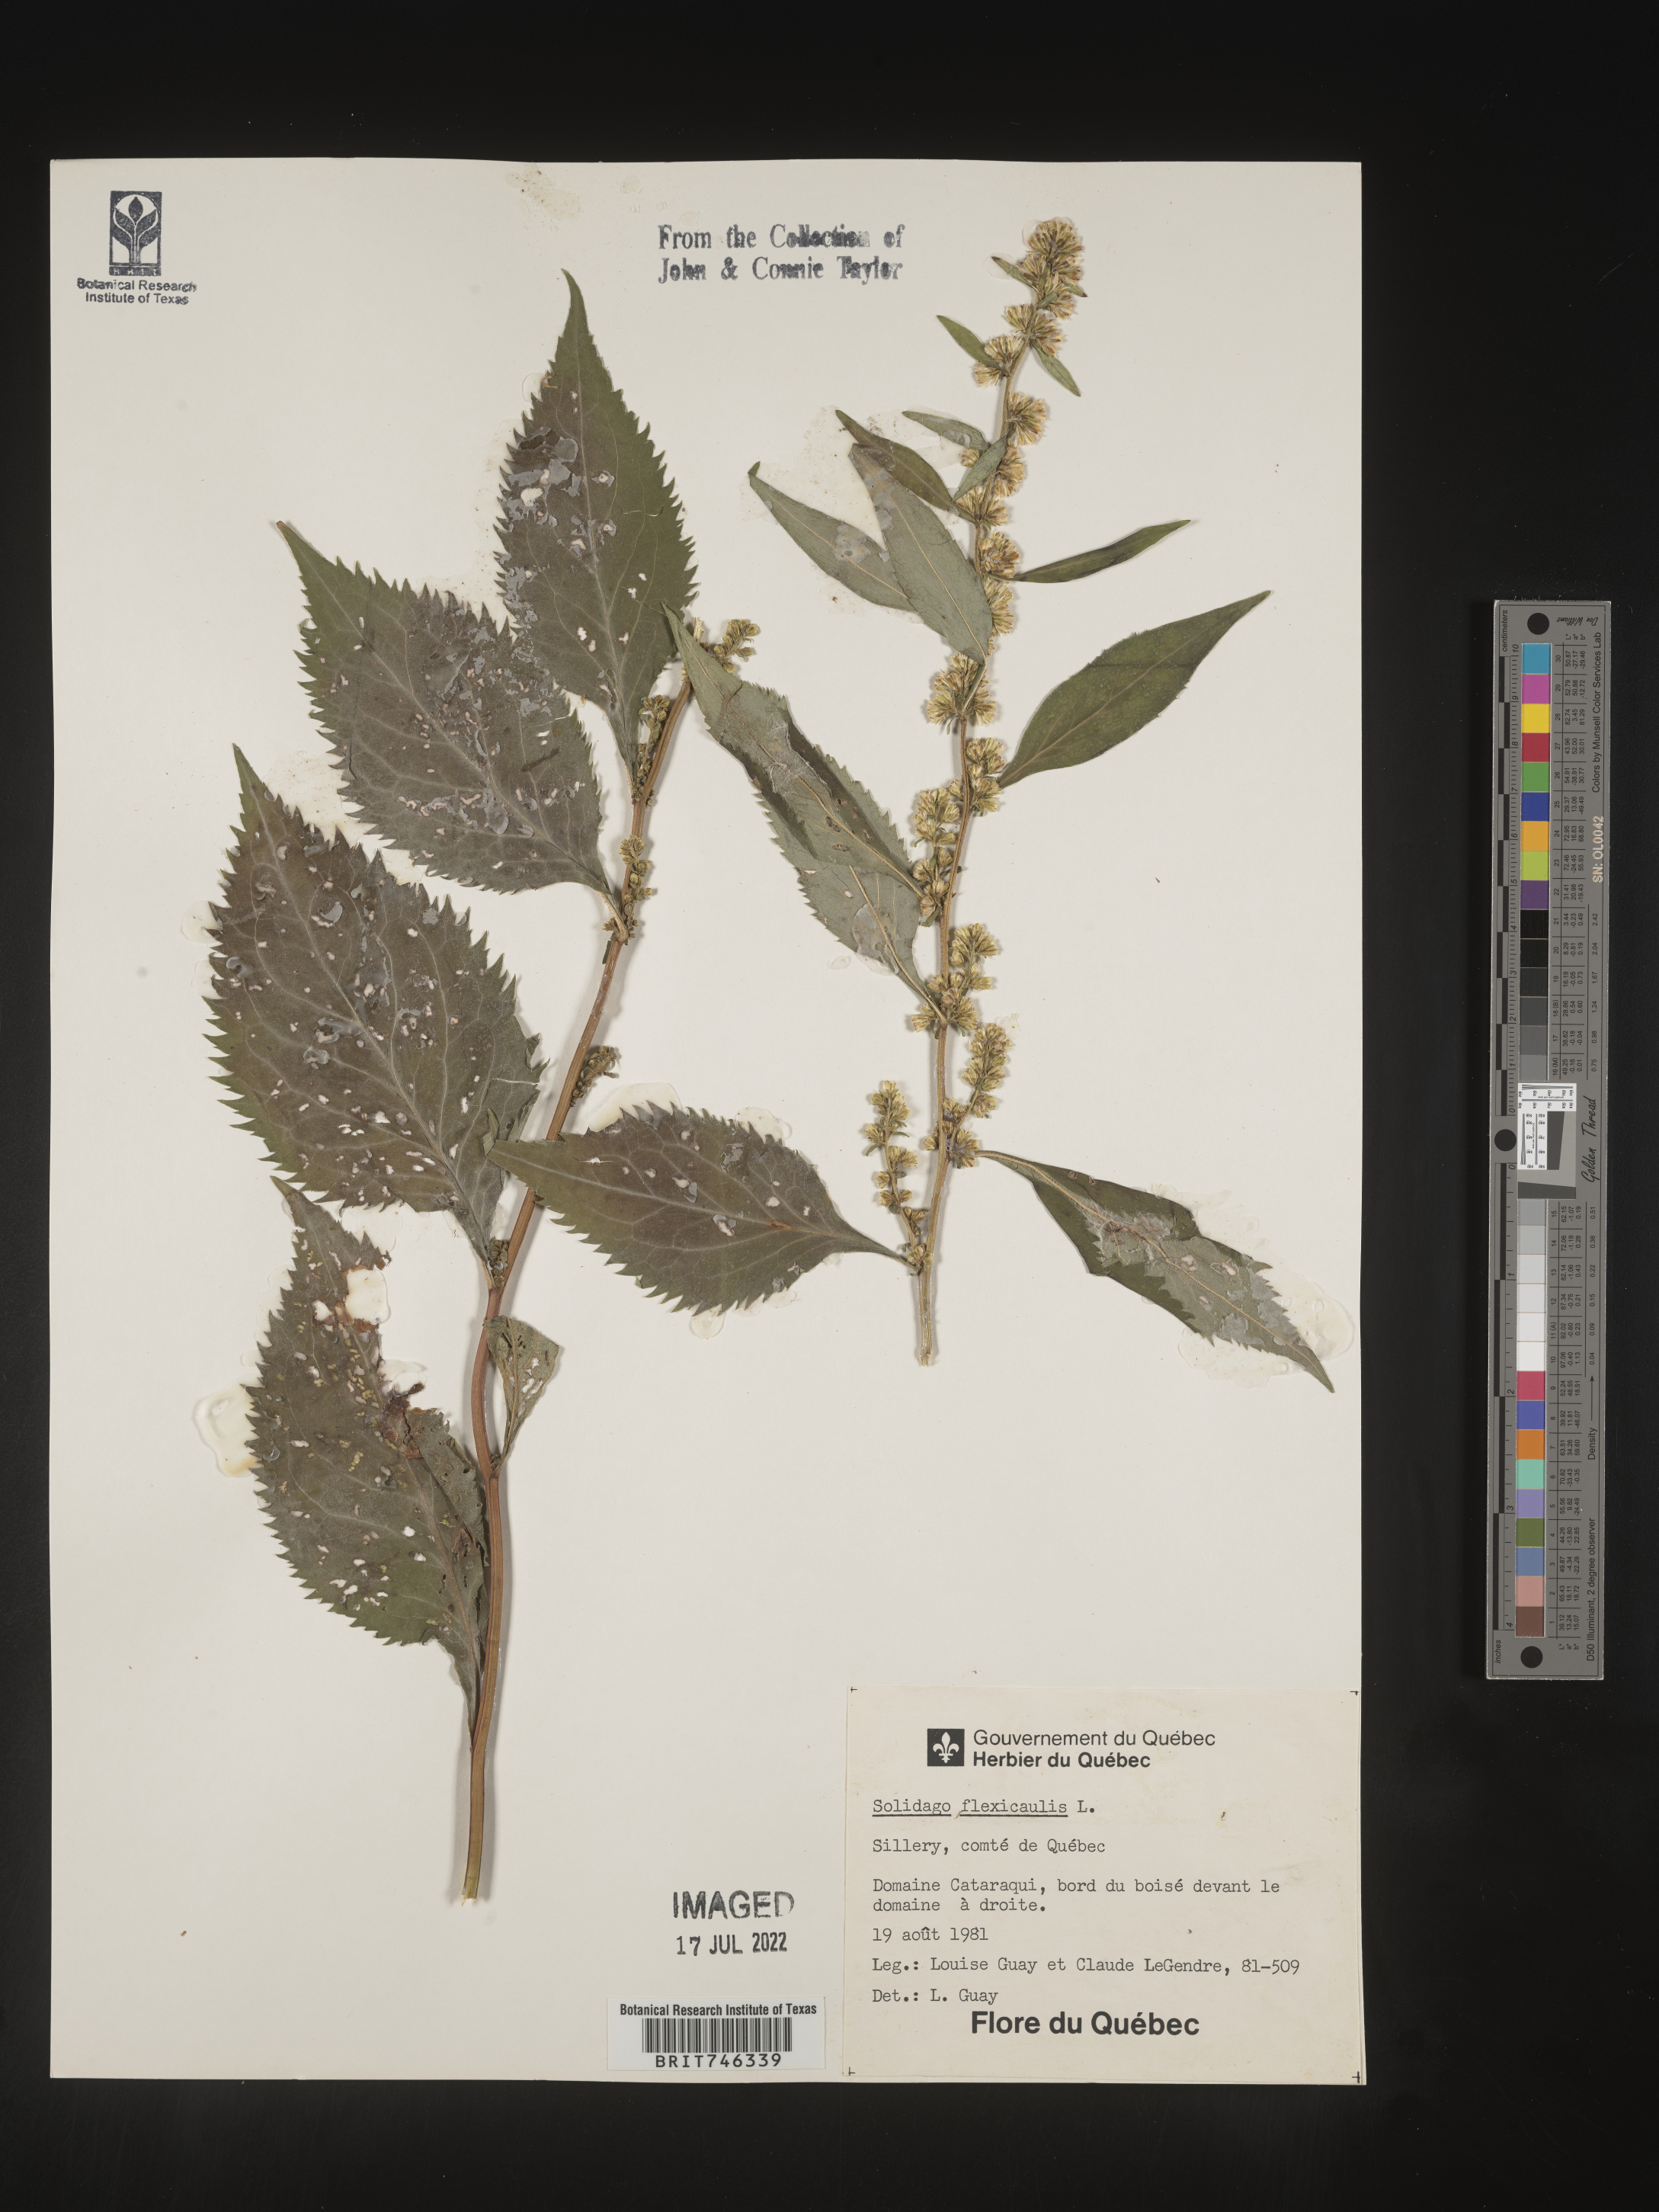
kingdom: Plantae
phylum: Tracheophyta
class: Magnoliopsida
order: Asterales
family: Asteraceae
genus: Solidago
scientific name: Solidago flexicaulis
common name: Zig-zag goldenrod
